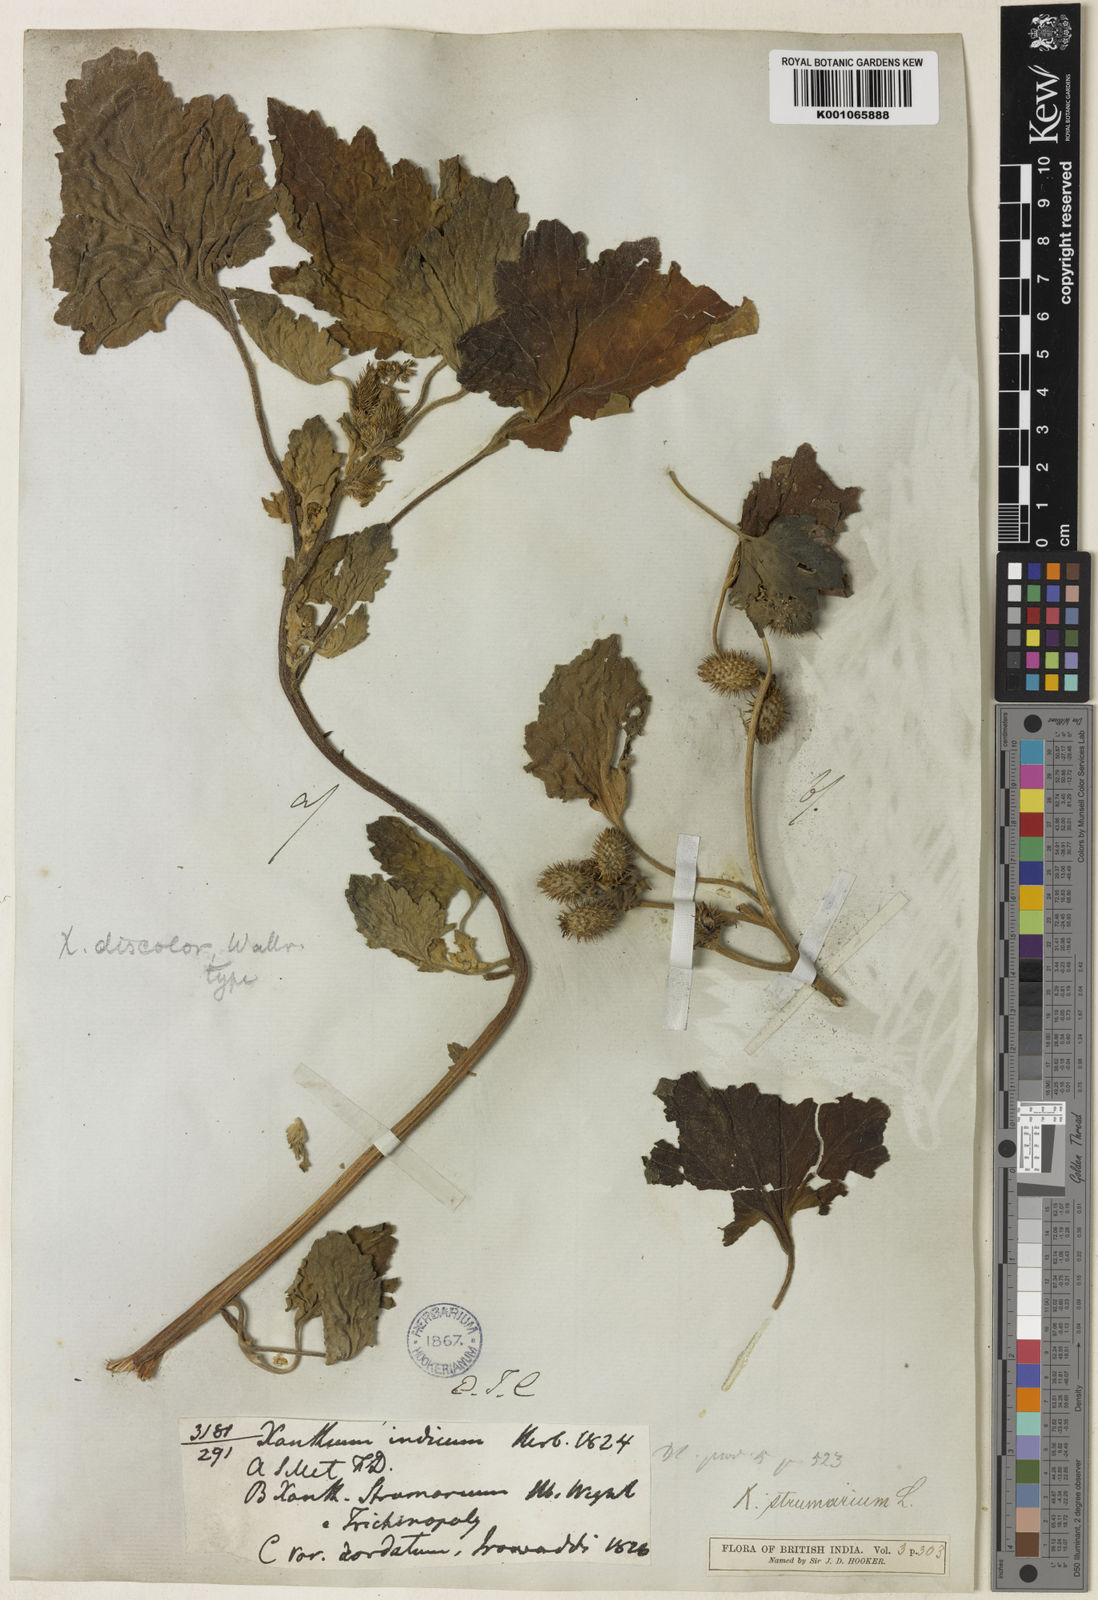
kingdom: Plantae
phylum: Tracheophyta
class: Magnoliopsida
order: Asterales
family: Asteraceae
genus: Xanthium
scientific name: Xanthium strumarium
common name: Rough cocklebur
